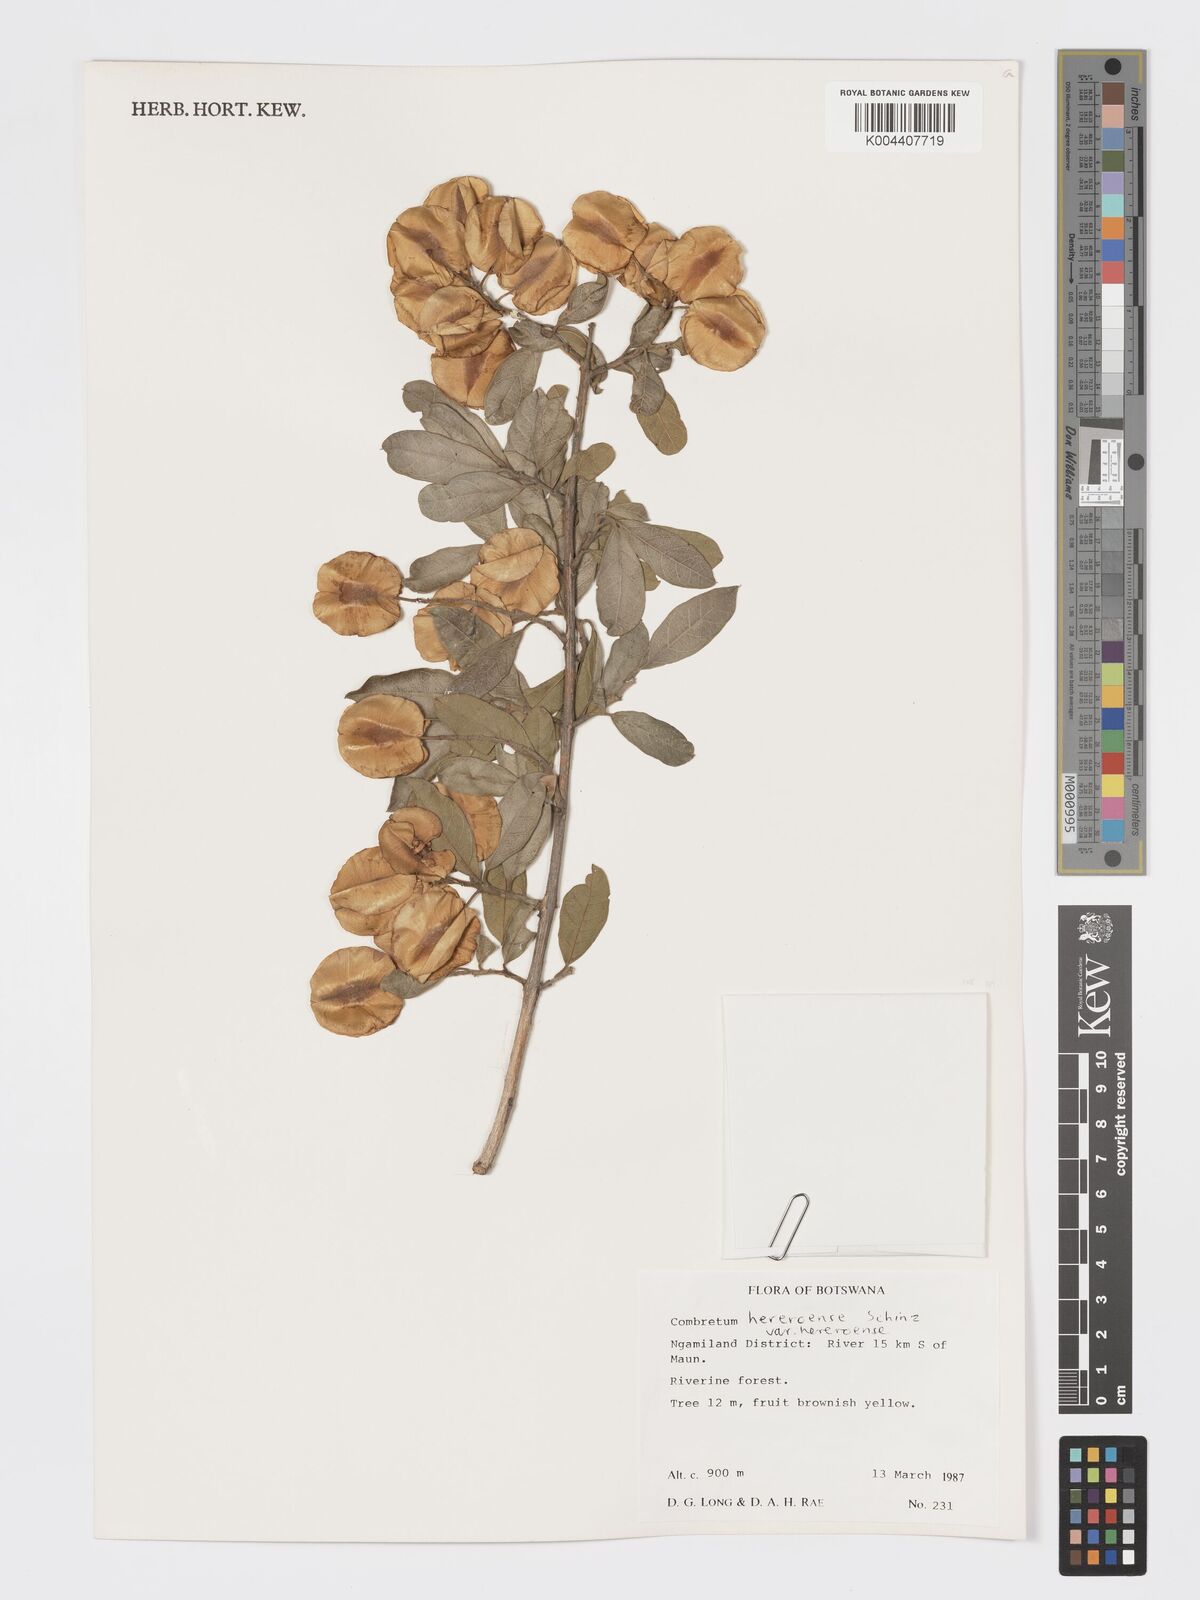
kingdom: Plantae
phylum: Tracheophyta
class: Magnoliopsida
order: Myrtales
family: Combretaceae
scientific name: Combretaceae
